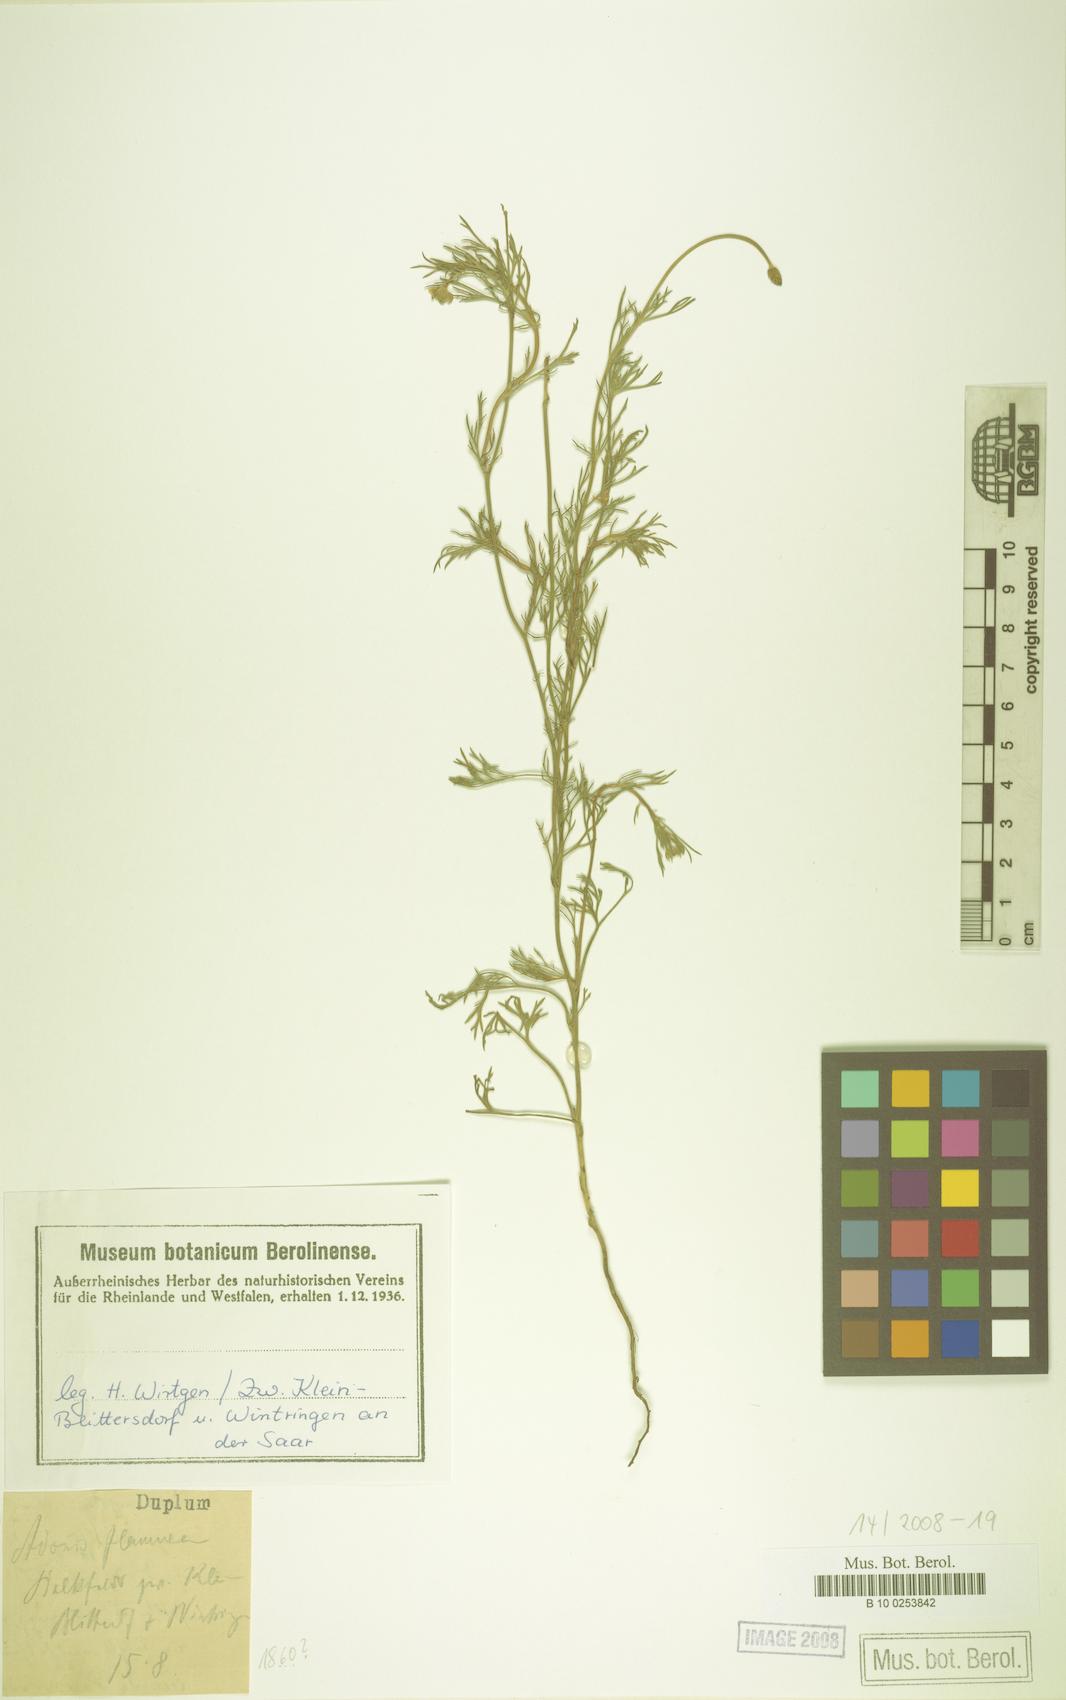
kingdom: Plantae
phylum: Tracheophyta
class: Magnoliopsida
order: Ranunculales
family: Ranunculaceae
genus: Adonis
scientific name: Adonis flammea
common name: Large pheasant's-eye
